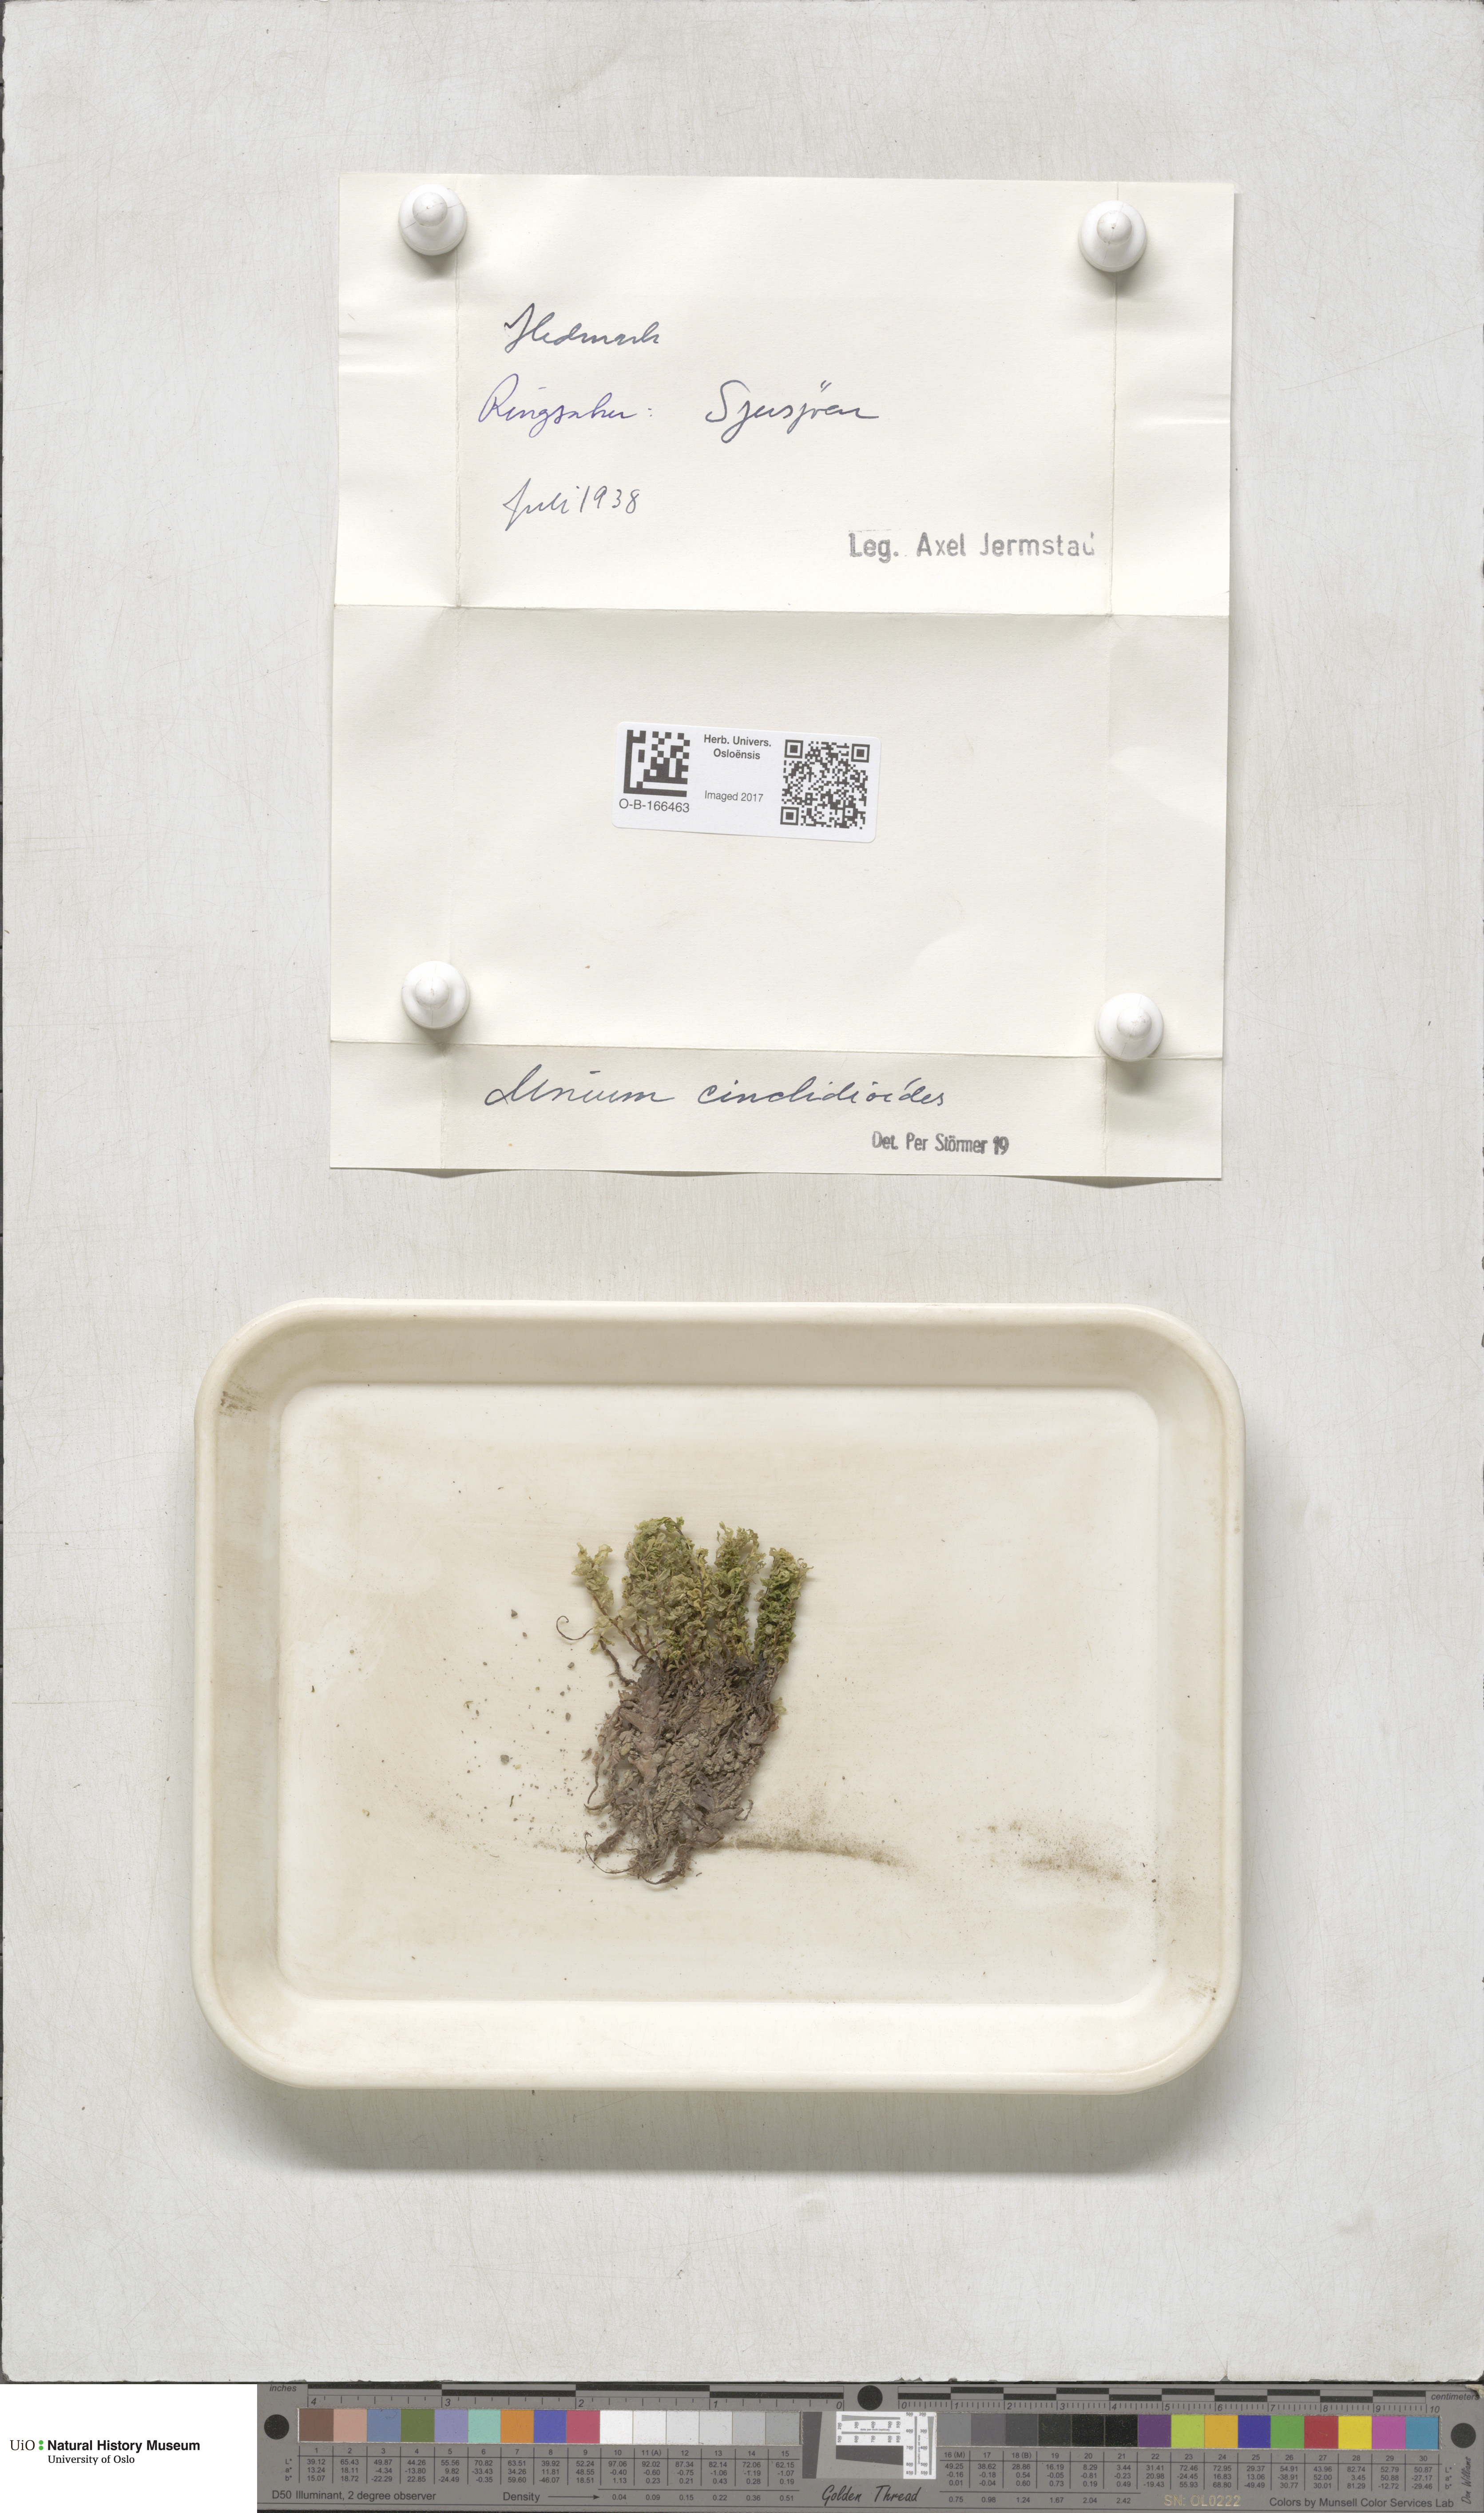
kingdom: Plantae
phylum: Bryophyta
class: Bryopsida
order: Bryales
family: Mniaceae
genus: Pseudobryum
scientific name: Pseudobryum cinclidioides
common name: River thyme moss
